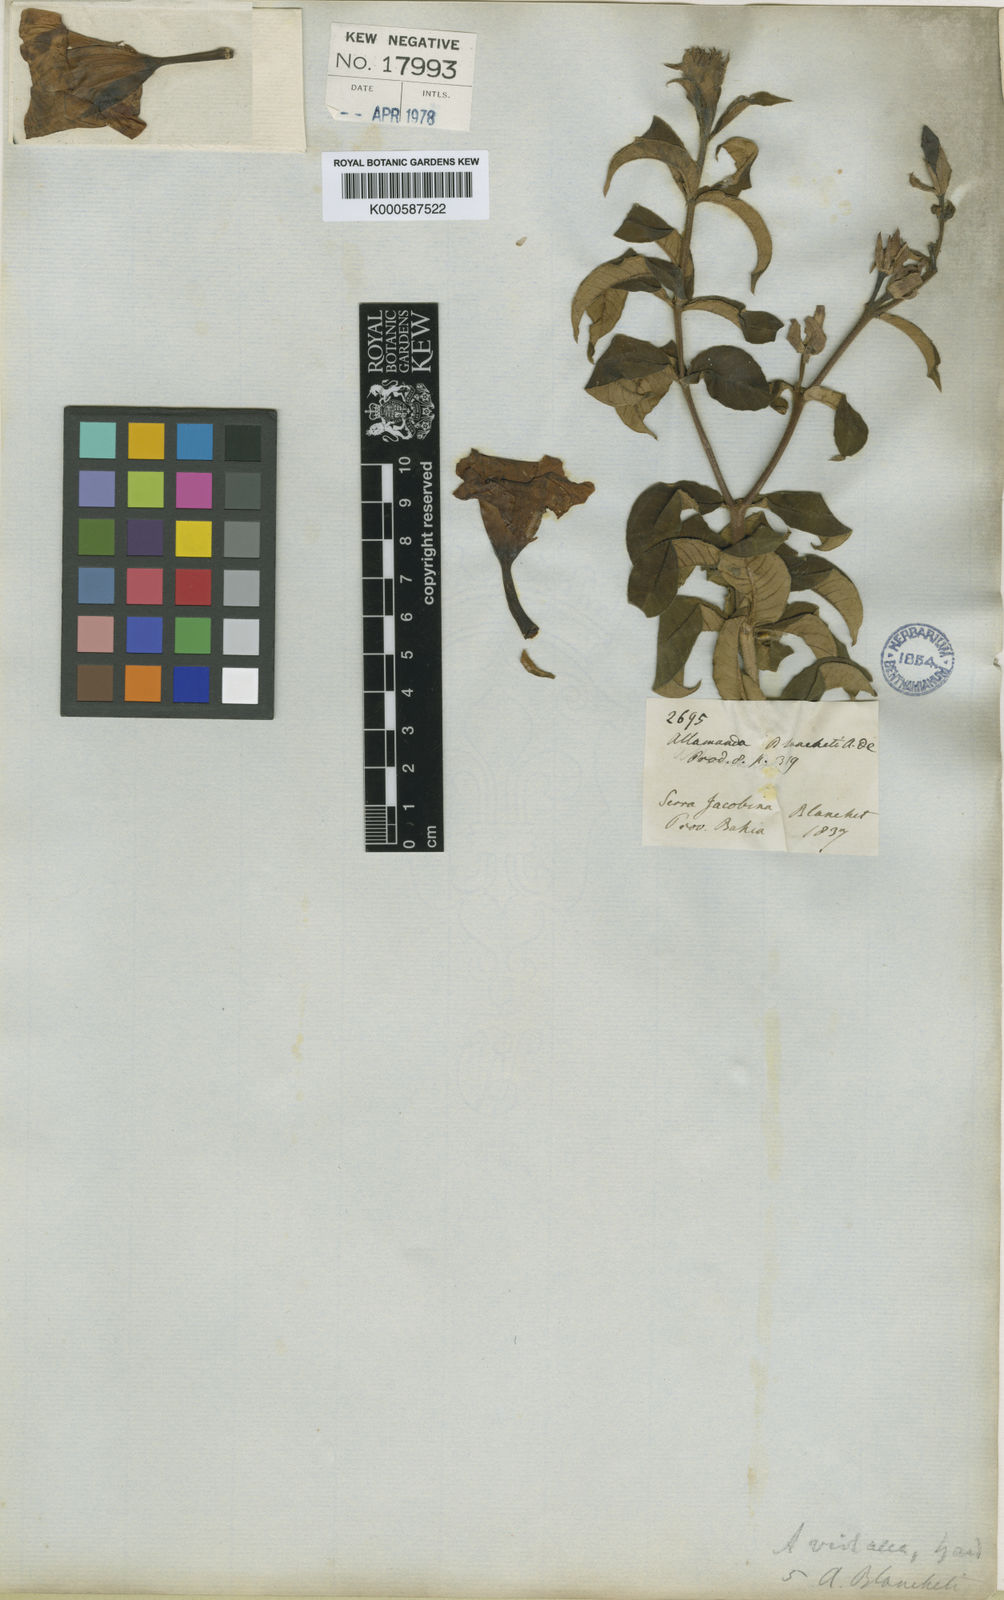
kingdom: Plantae
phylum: Tracheophyta
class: Magnoliopsida
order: Gentianales
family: Apocynaceae
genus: Allamanda
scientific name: Allamanda blanchetii
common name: Purple allamanda
